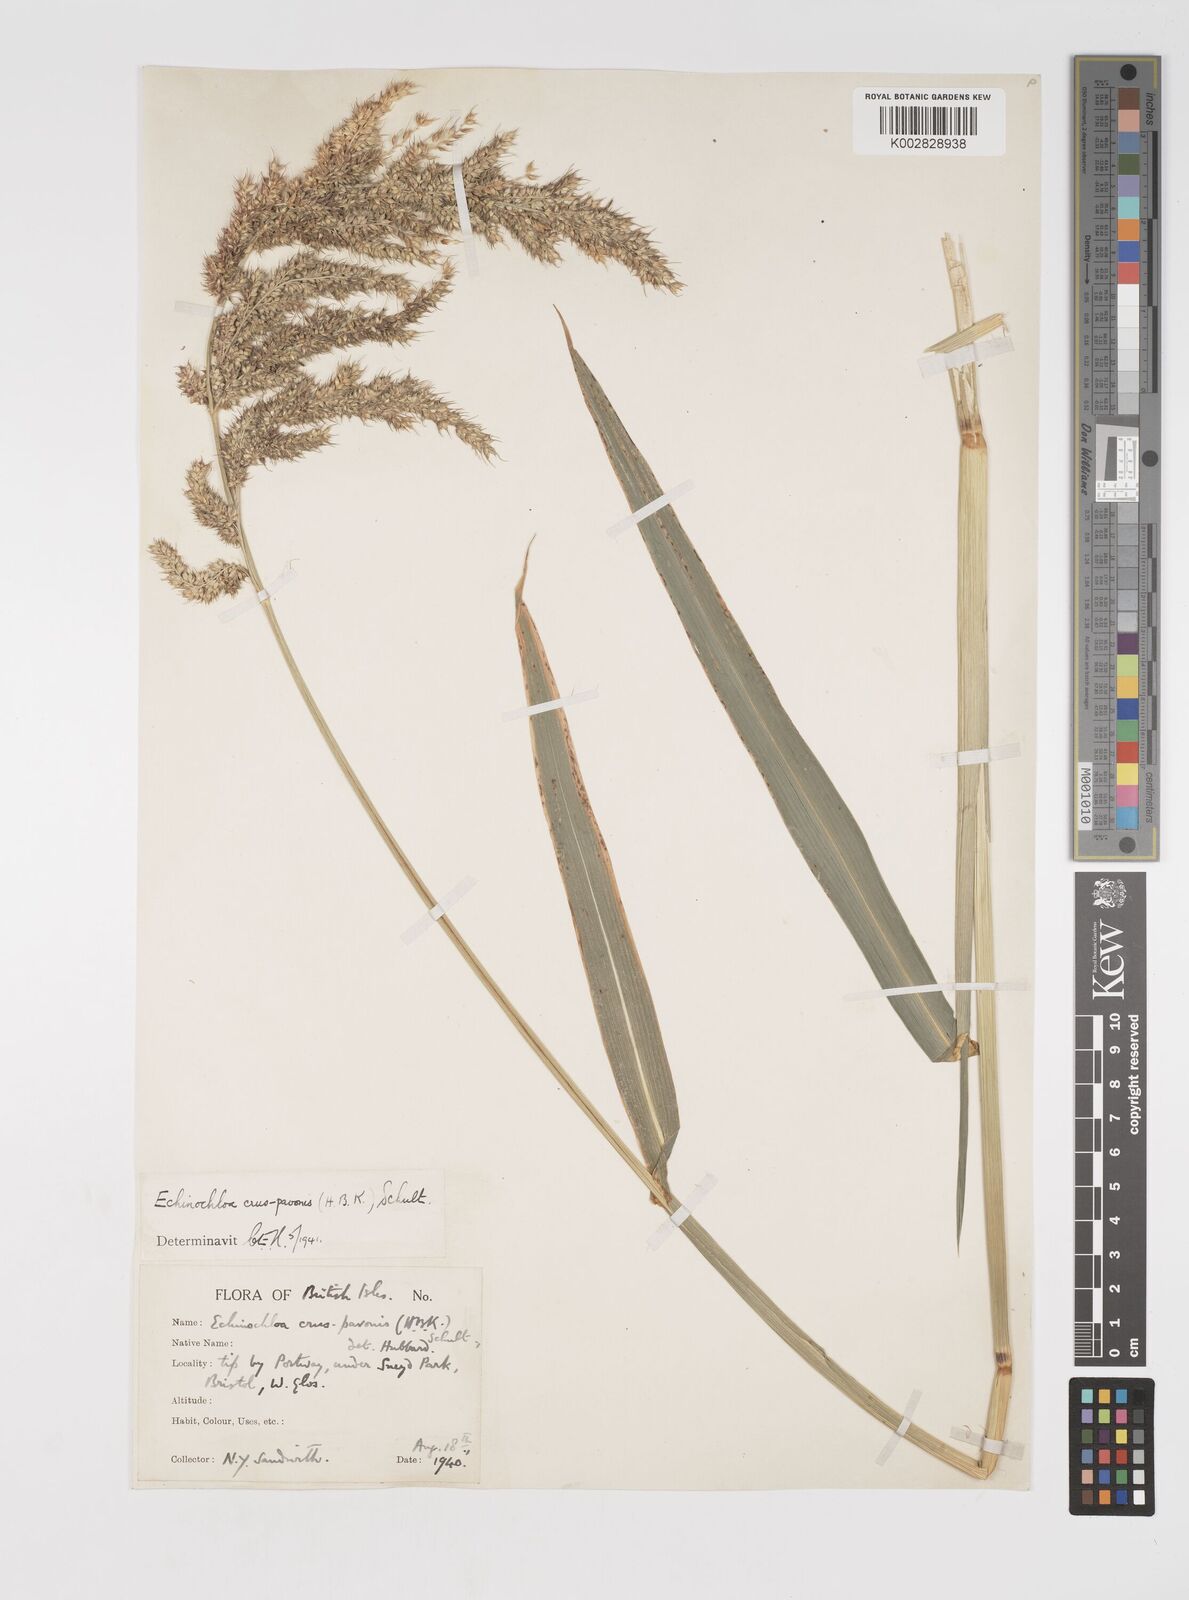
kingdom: Plantae
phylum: Tracheophyta
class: Liliopsida
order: Poales
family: Poaceae
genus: Echinochloa
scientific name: Echinochloa crus-pavonis
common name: Gulf cockspur grass
